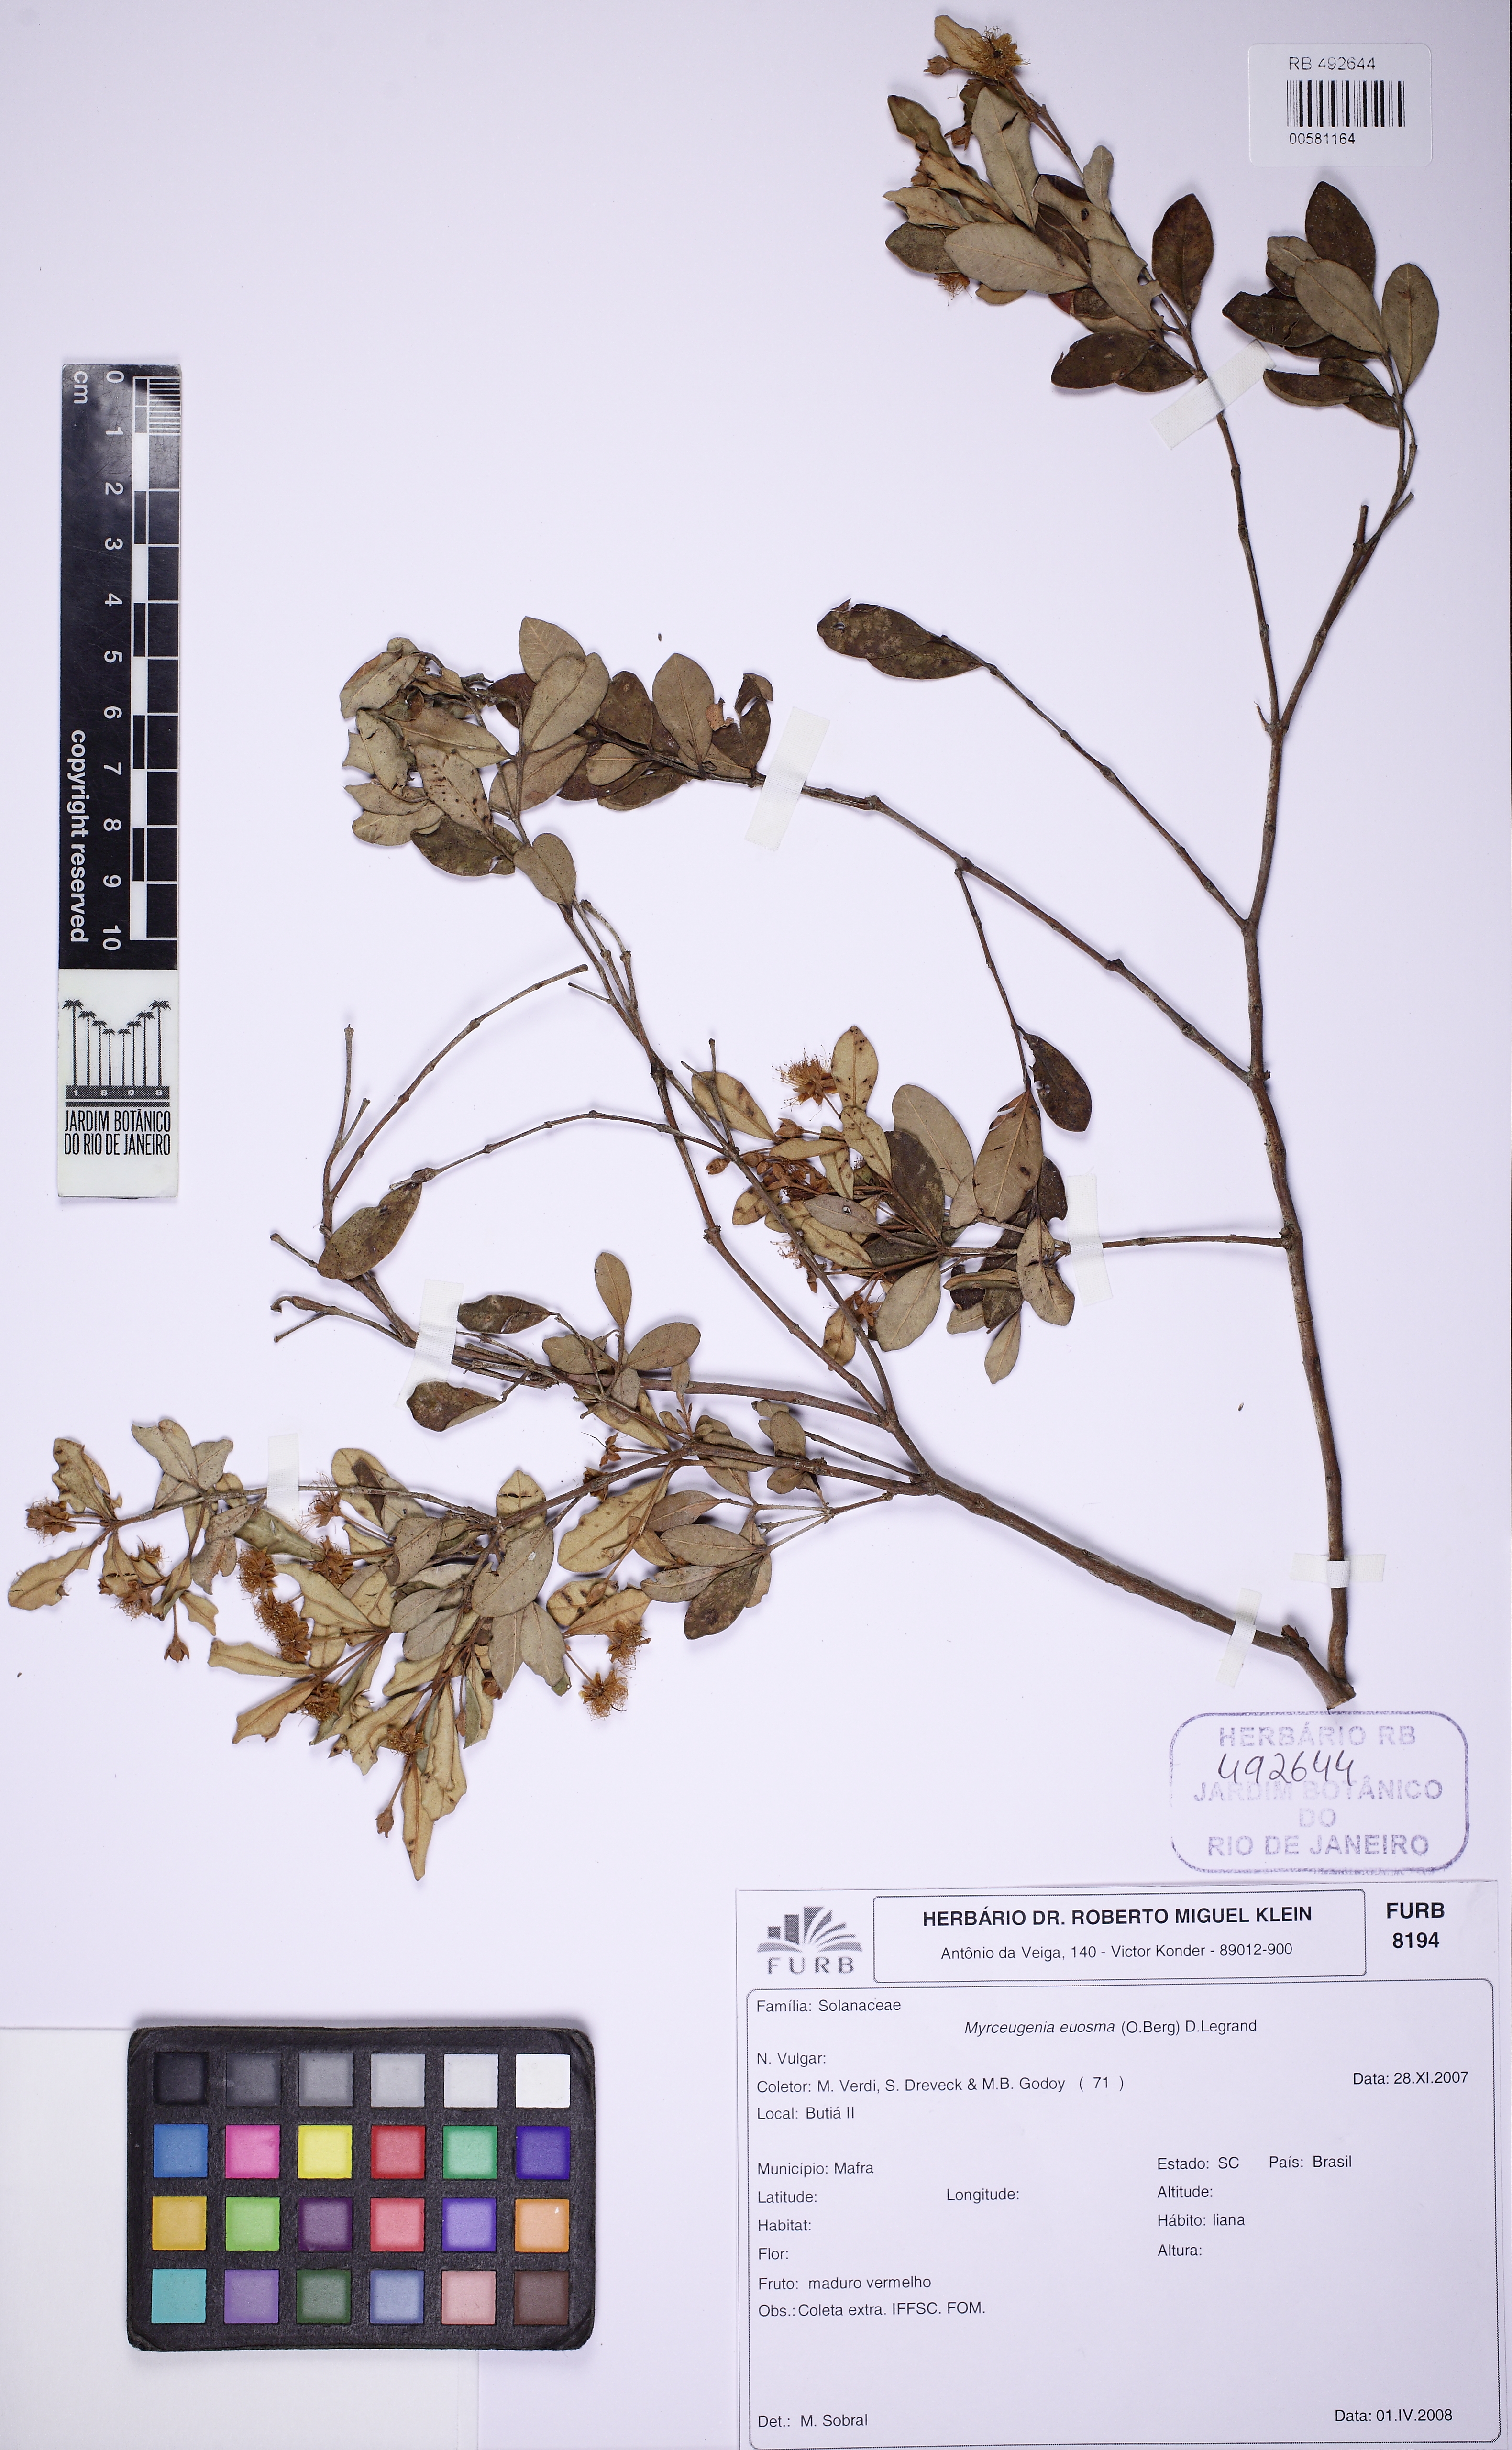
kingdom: Plantae
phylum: Tracheophyta
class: Magnoliopsida
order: Myrtales
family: Myrtaceae
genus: Myrceugenia
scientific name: Myrceugenia euosma
